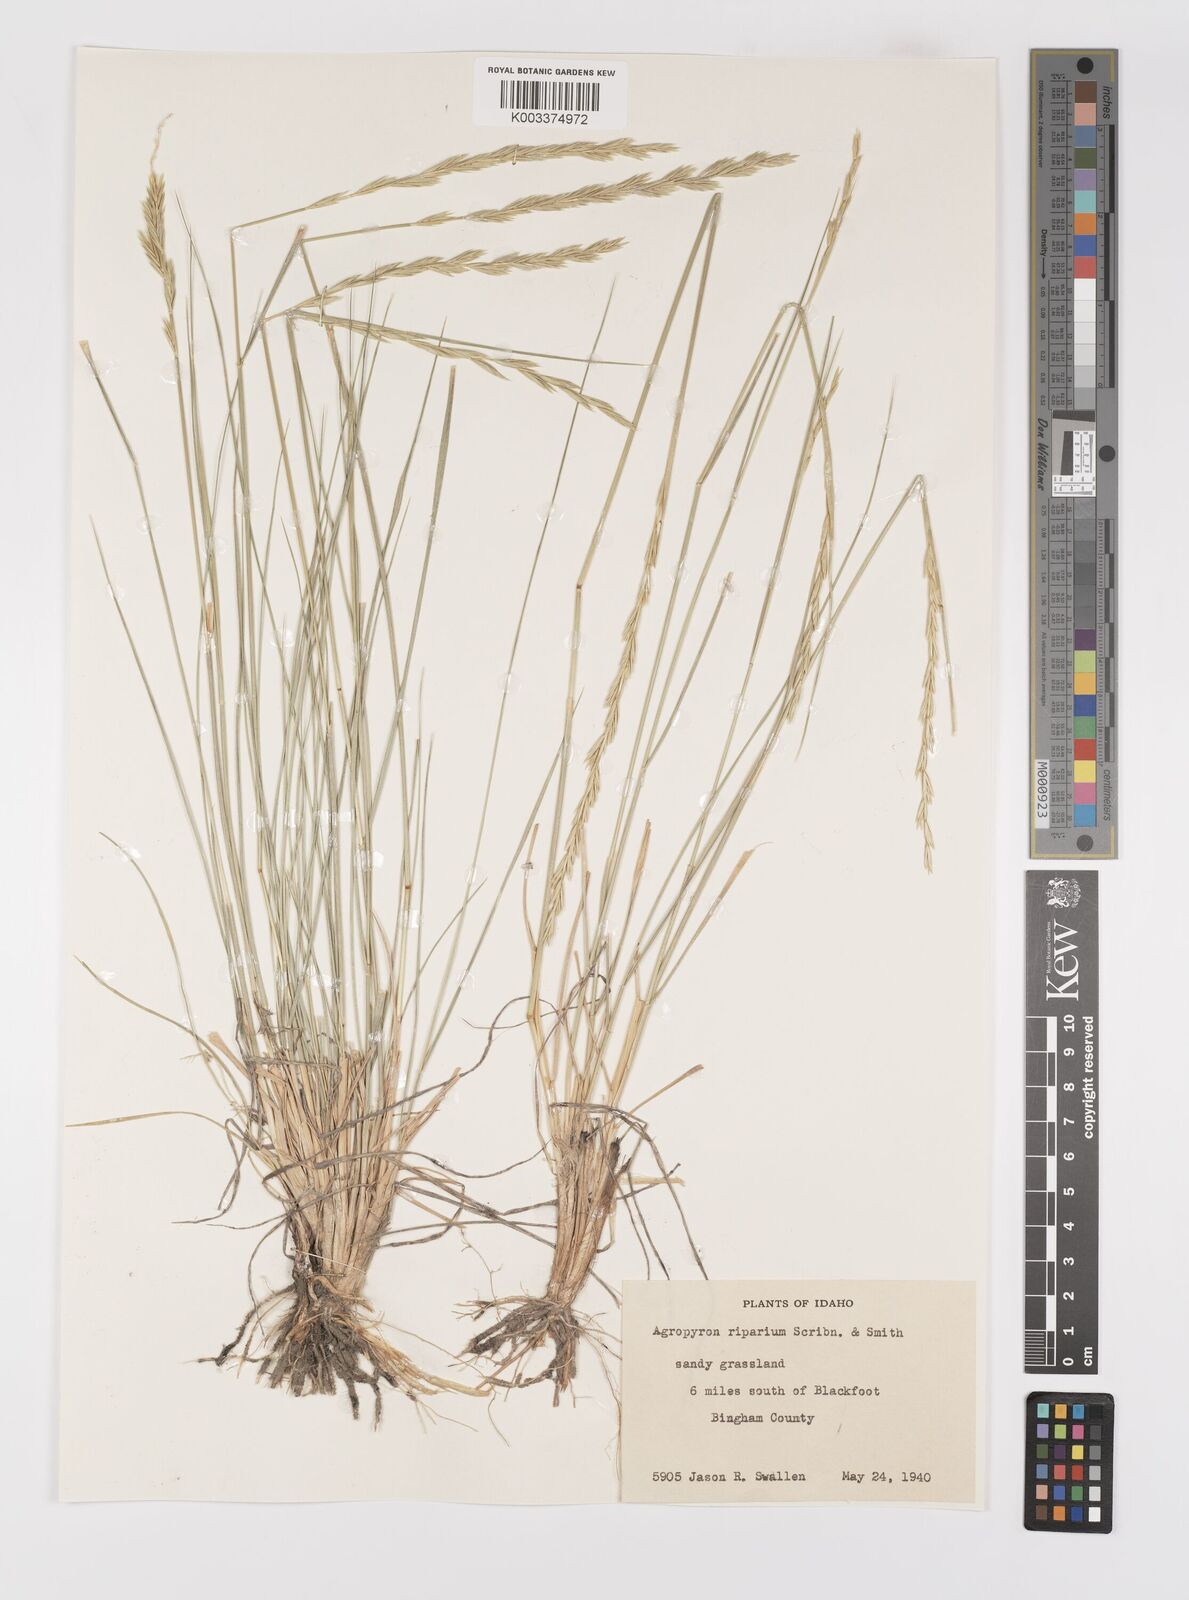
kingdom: Plantae
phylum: Tracheophyta
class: Liliopsida
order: Poales
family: Poaceae
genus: Elymus
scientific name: Elymus lanceolatus
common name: Thick-spike wheatgrass
